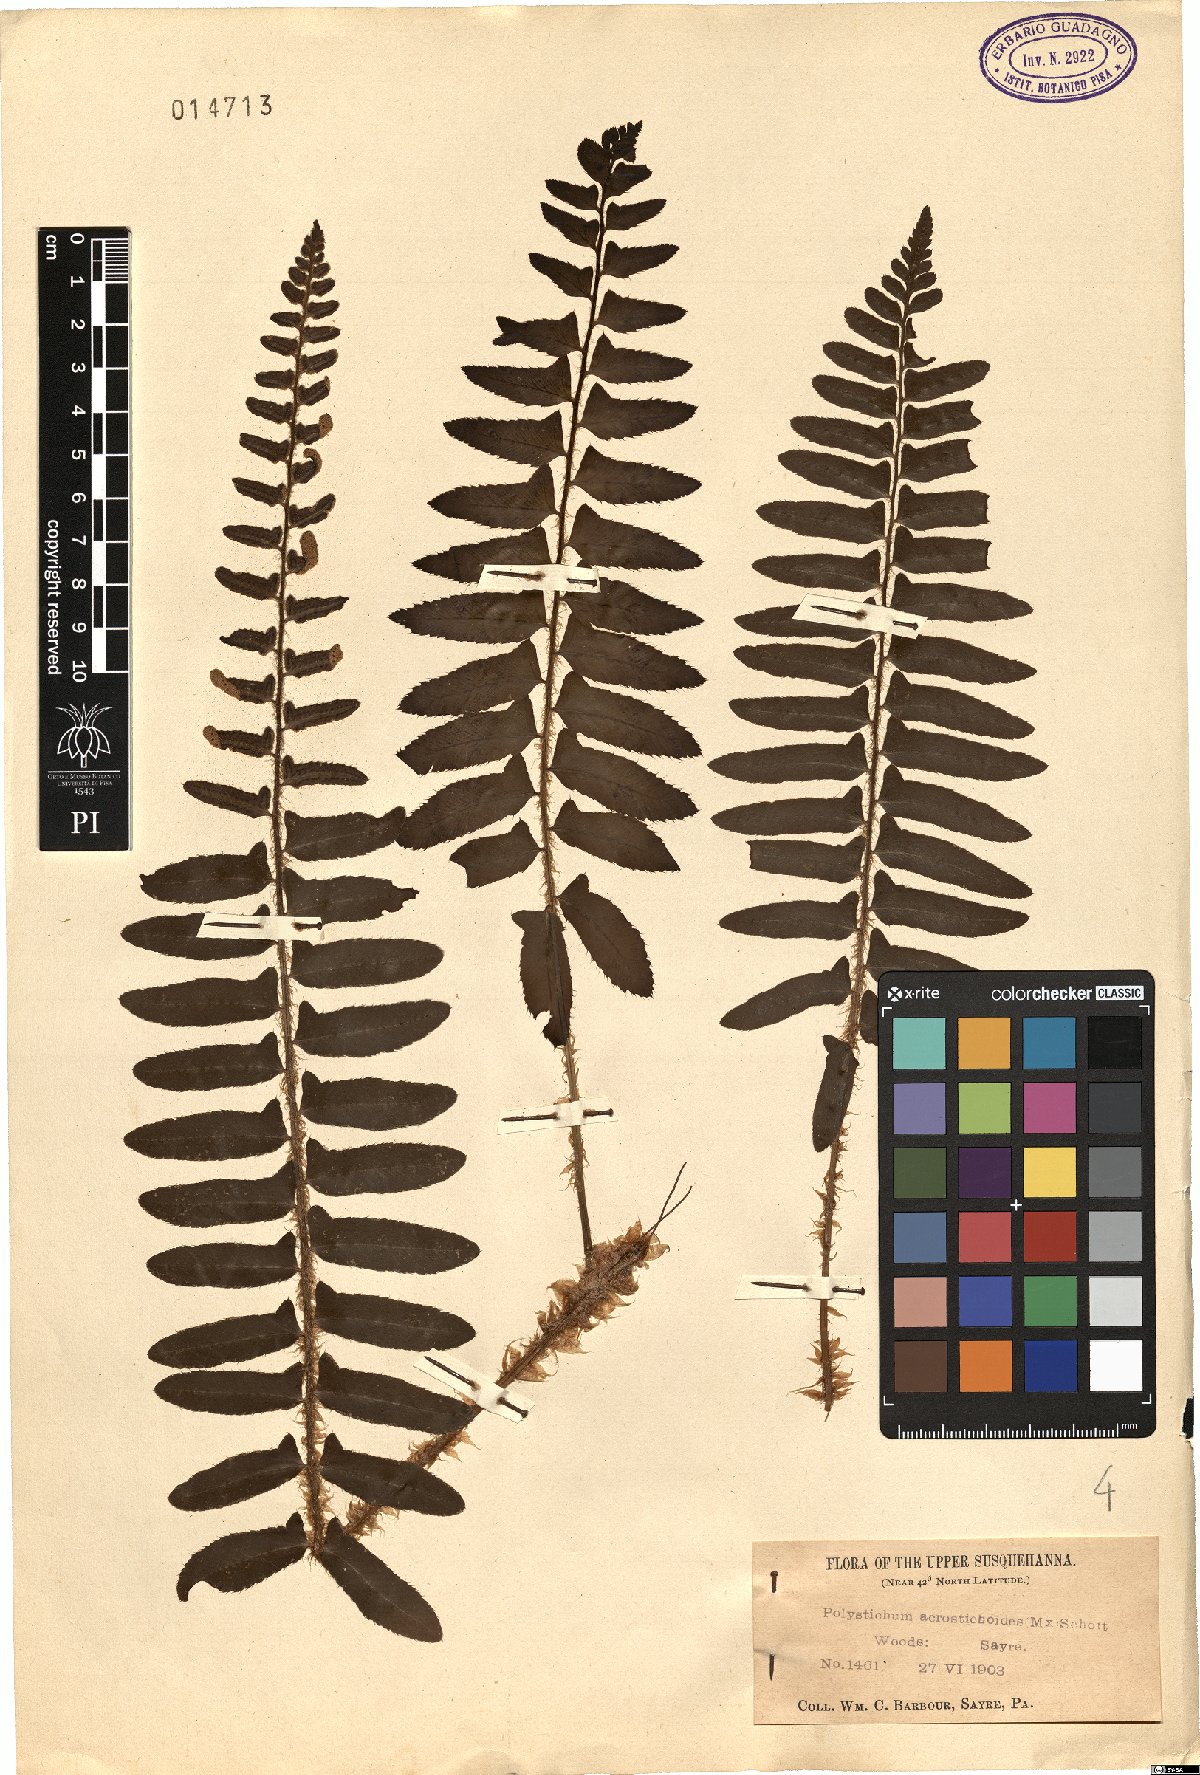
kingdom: Plantae
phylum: Tracheophyta
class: Polypodiopsida
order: Polypodiales
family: Dryopteridaceae
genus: Polystichum
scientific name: Polystichum acrostichoides
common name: Christmas fern
